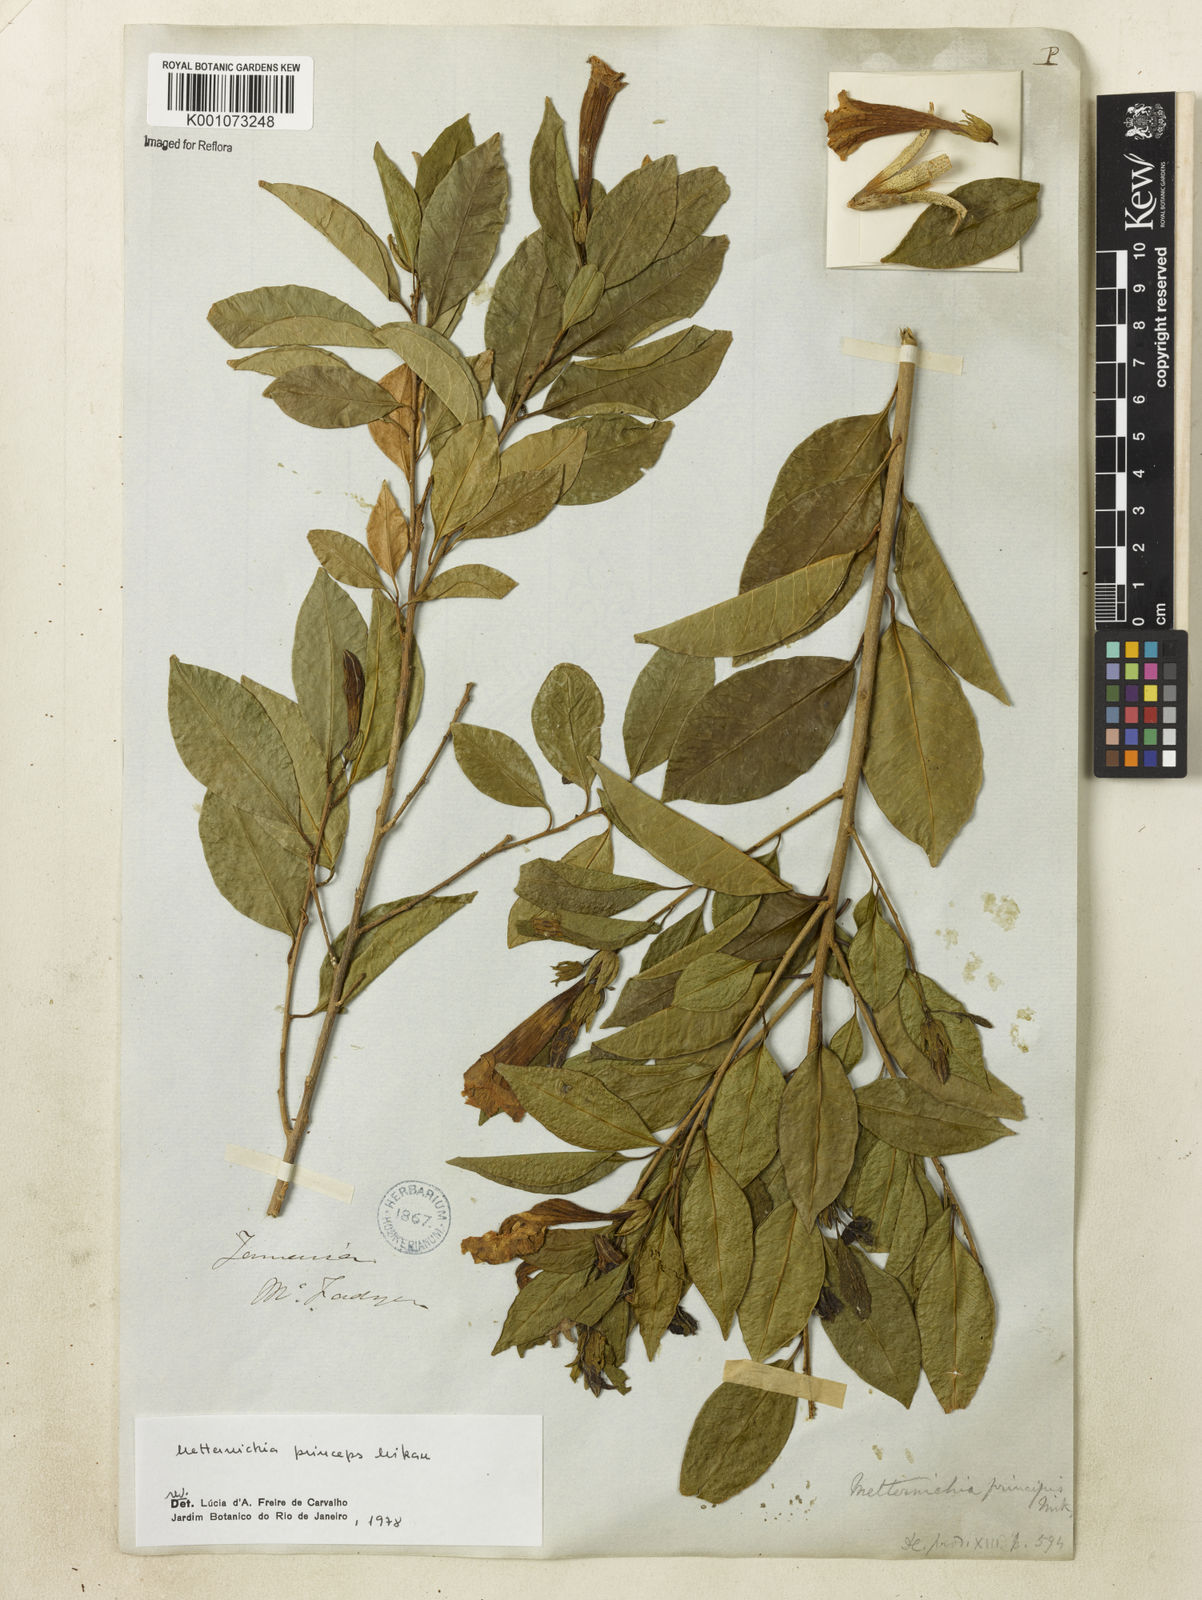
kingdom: Plantae
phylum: Tracheophyta
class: Magnoliopsida
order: Solanales
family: Solanaceae
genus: Metternichia
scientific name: Metternichia
